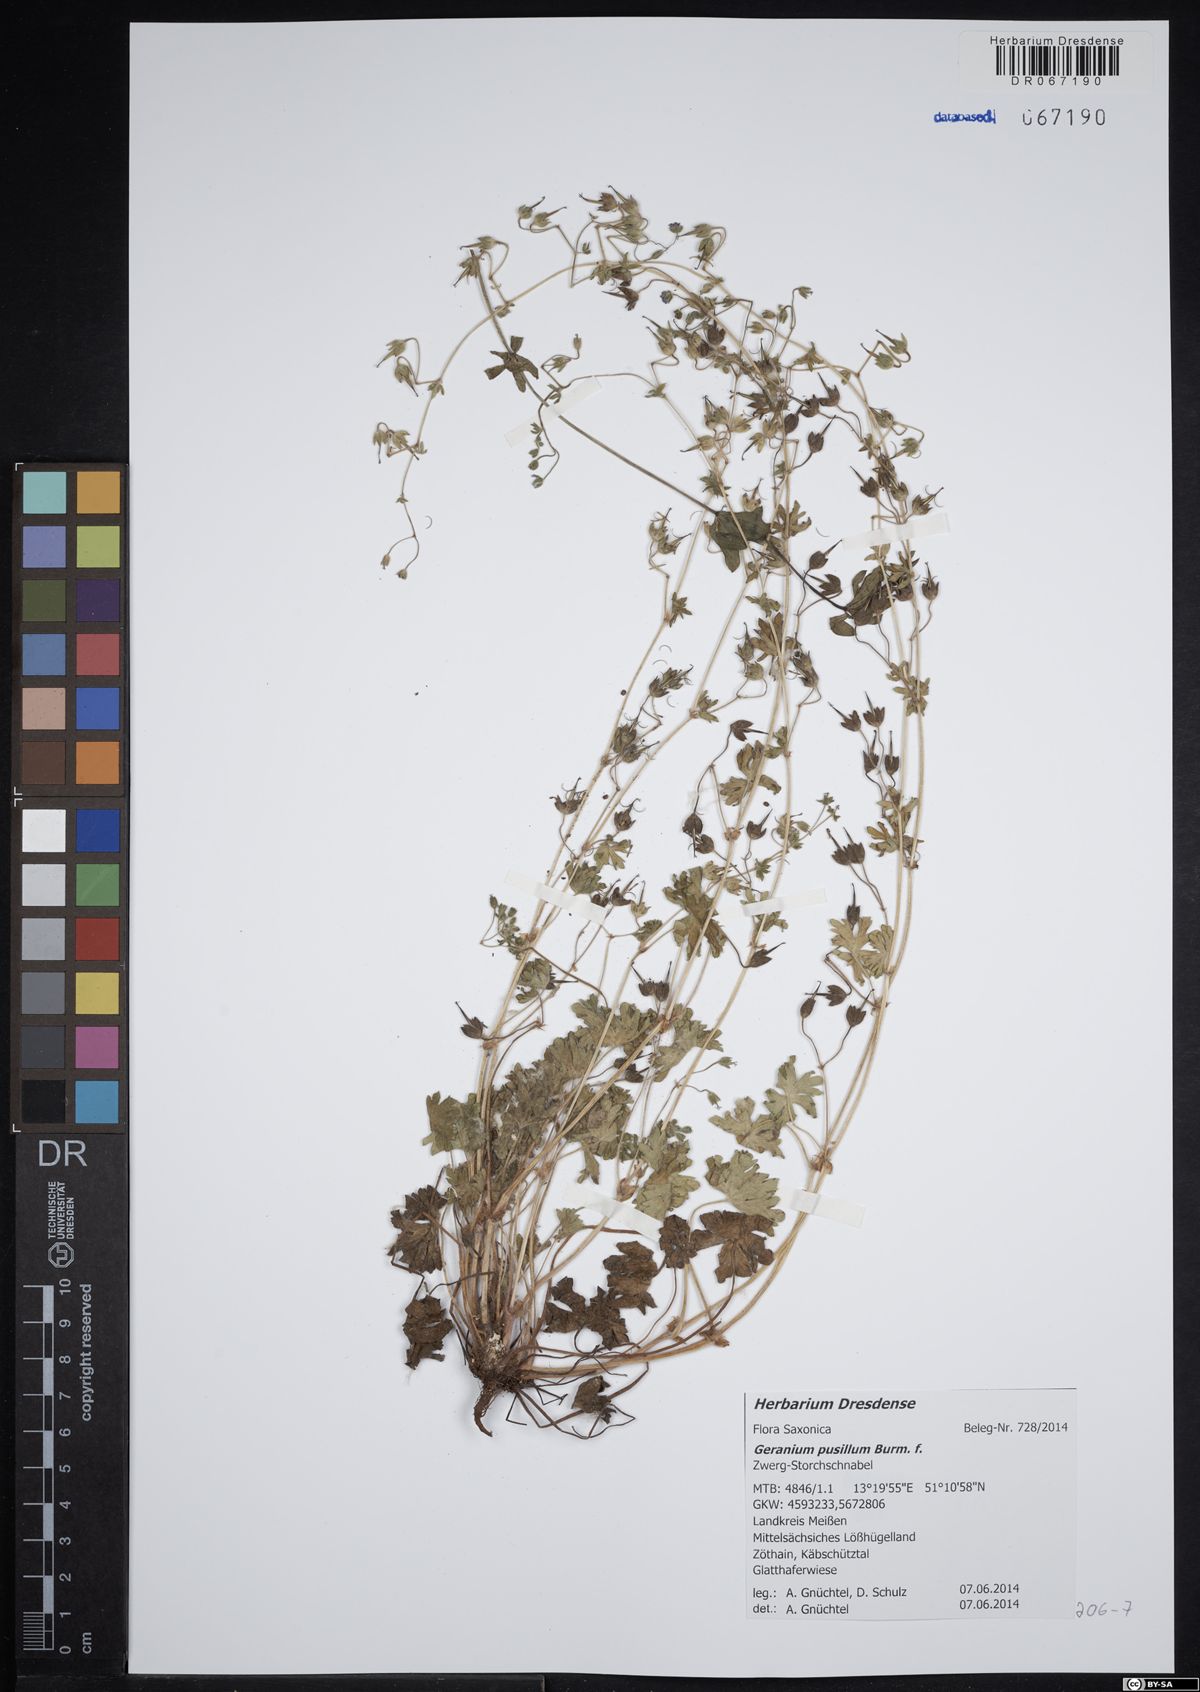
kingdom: Plantae
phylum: Tracheophyta
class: Magnoliopsida
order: Geraniales
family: Geraniaceae
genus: Geranium
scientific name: Geranium pusillum
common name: Small geranium
